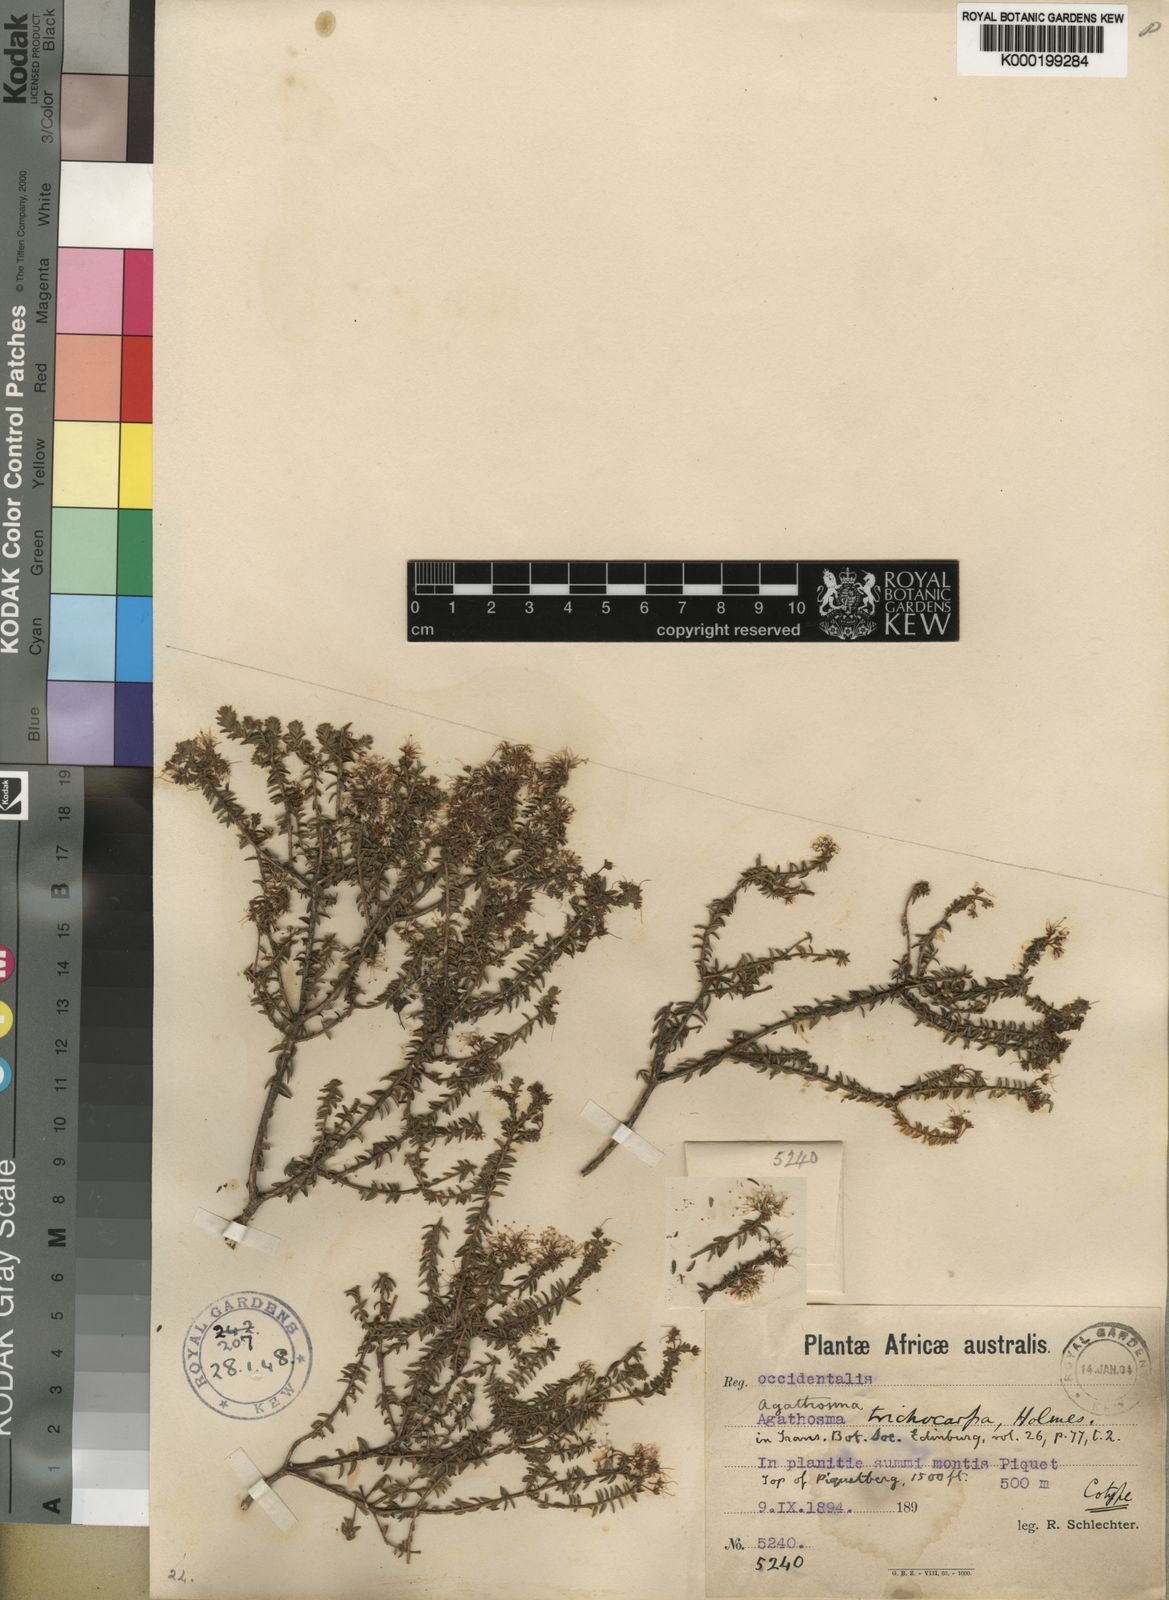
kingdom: Plantae
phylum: Tracheophyta
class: Magnoliopsida
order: Sapindales
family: Rutaceae
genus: Agathosma
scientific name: Agathosma trichocarpa
